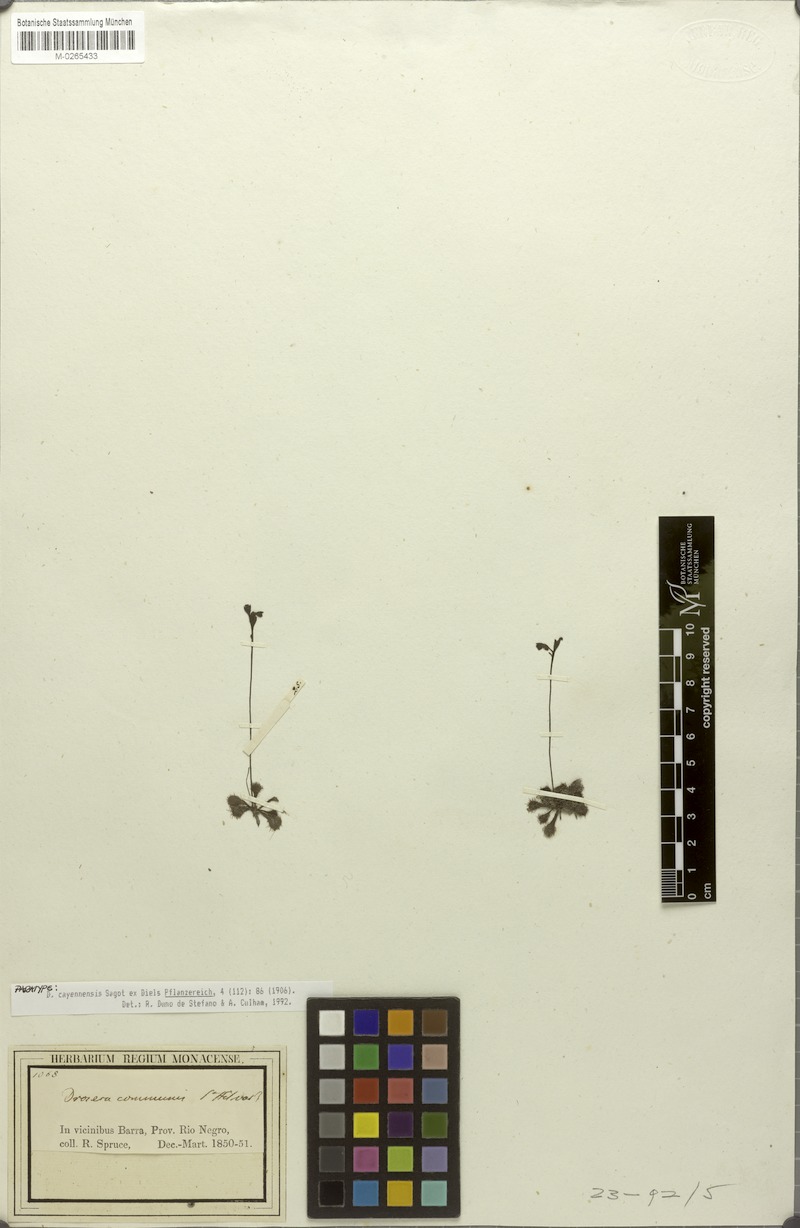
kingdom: Plantae
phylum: Tracheophyta
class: Magnoliopsida
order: Caryophyllales
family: Droseraceae
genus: Drosera
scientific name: Drosera cayennensis
